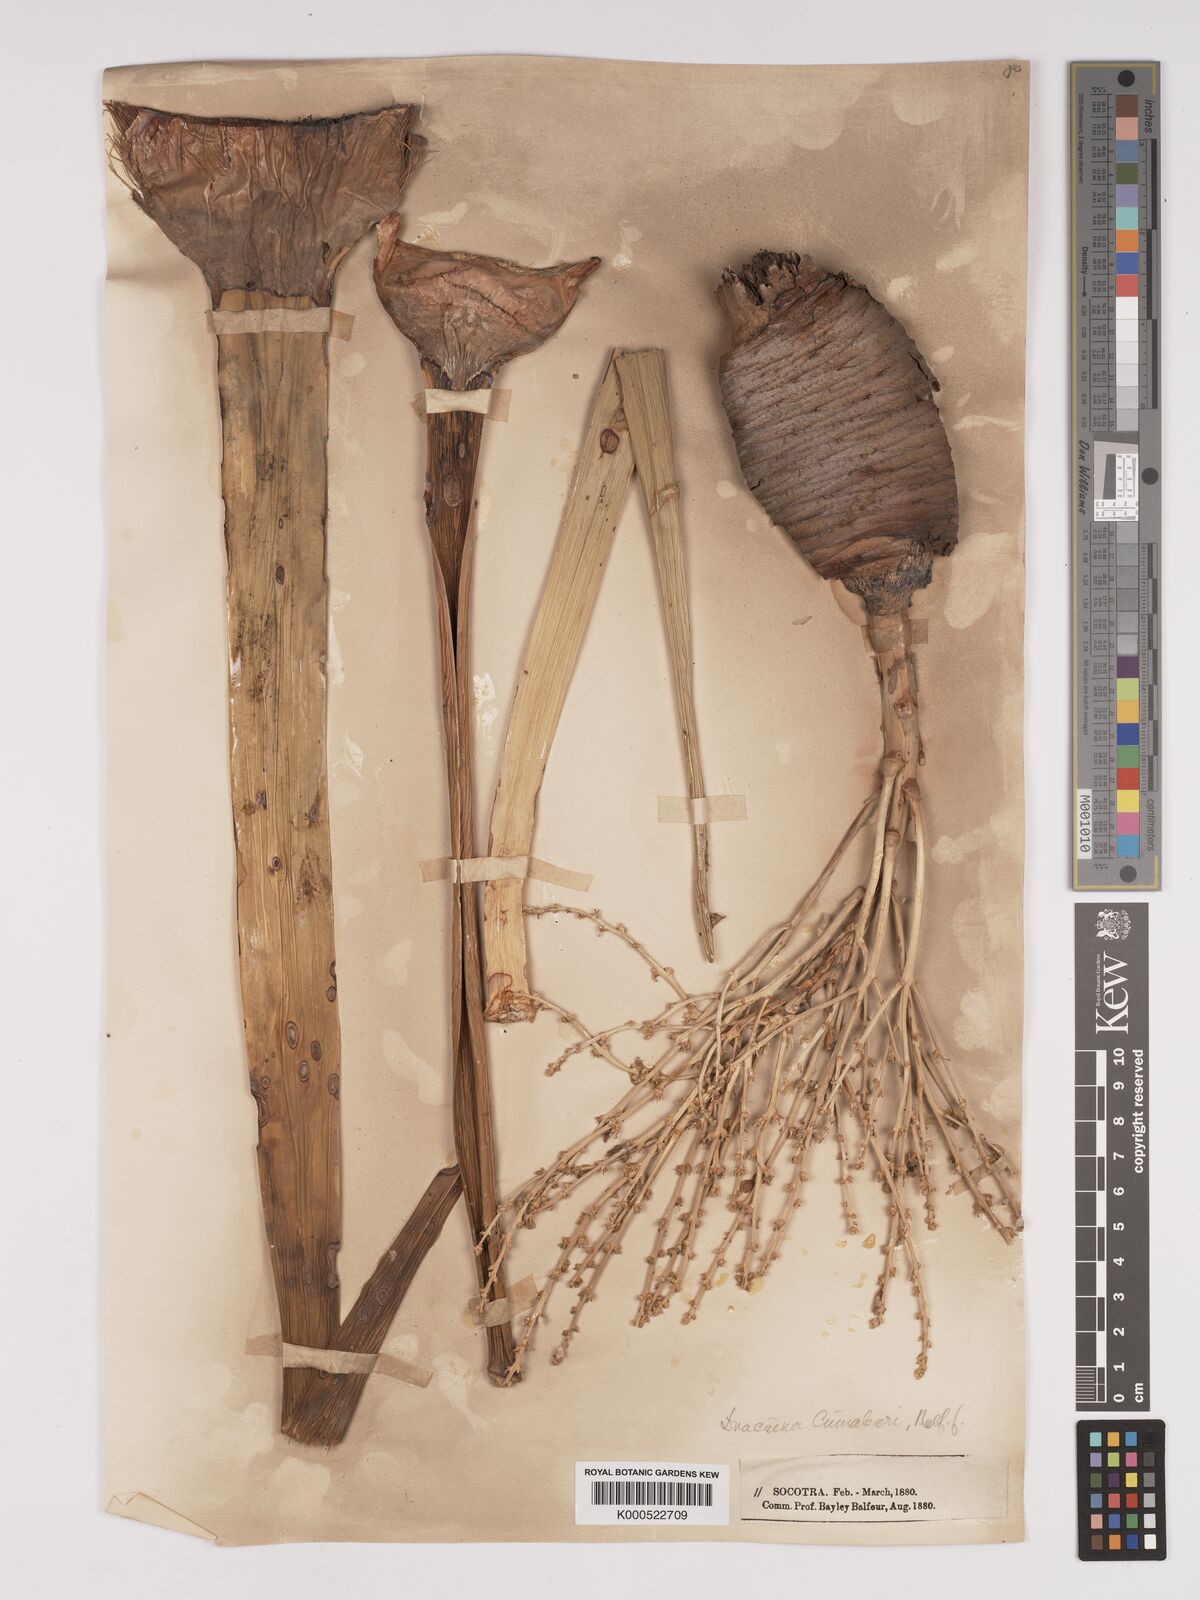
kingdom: Plantae
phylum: Tracheophyta
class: Liliopsida
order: Asparagales
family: Asparagaceae
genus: Dracaena
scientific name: Dracaena cinnabari
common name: Dragon's blood tree
